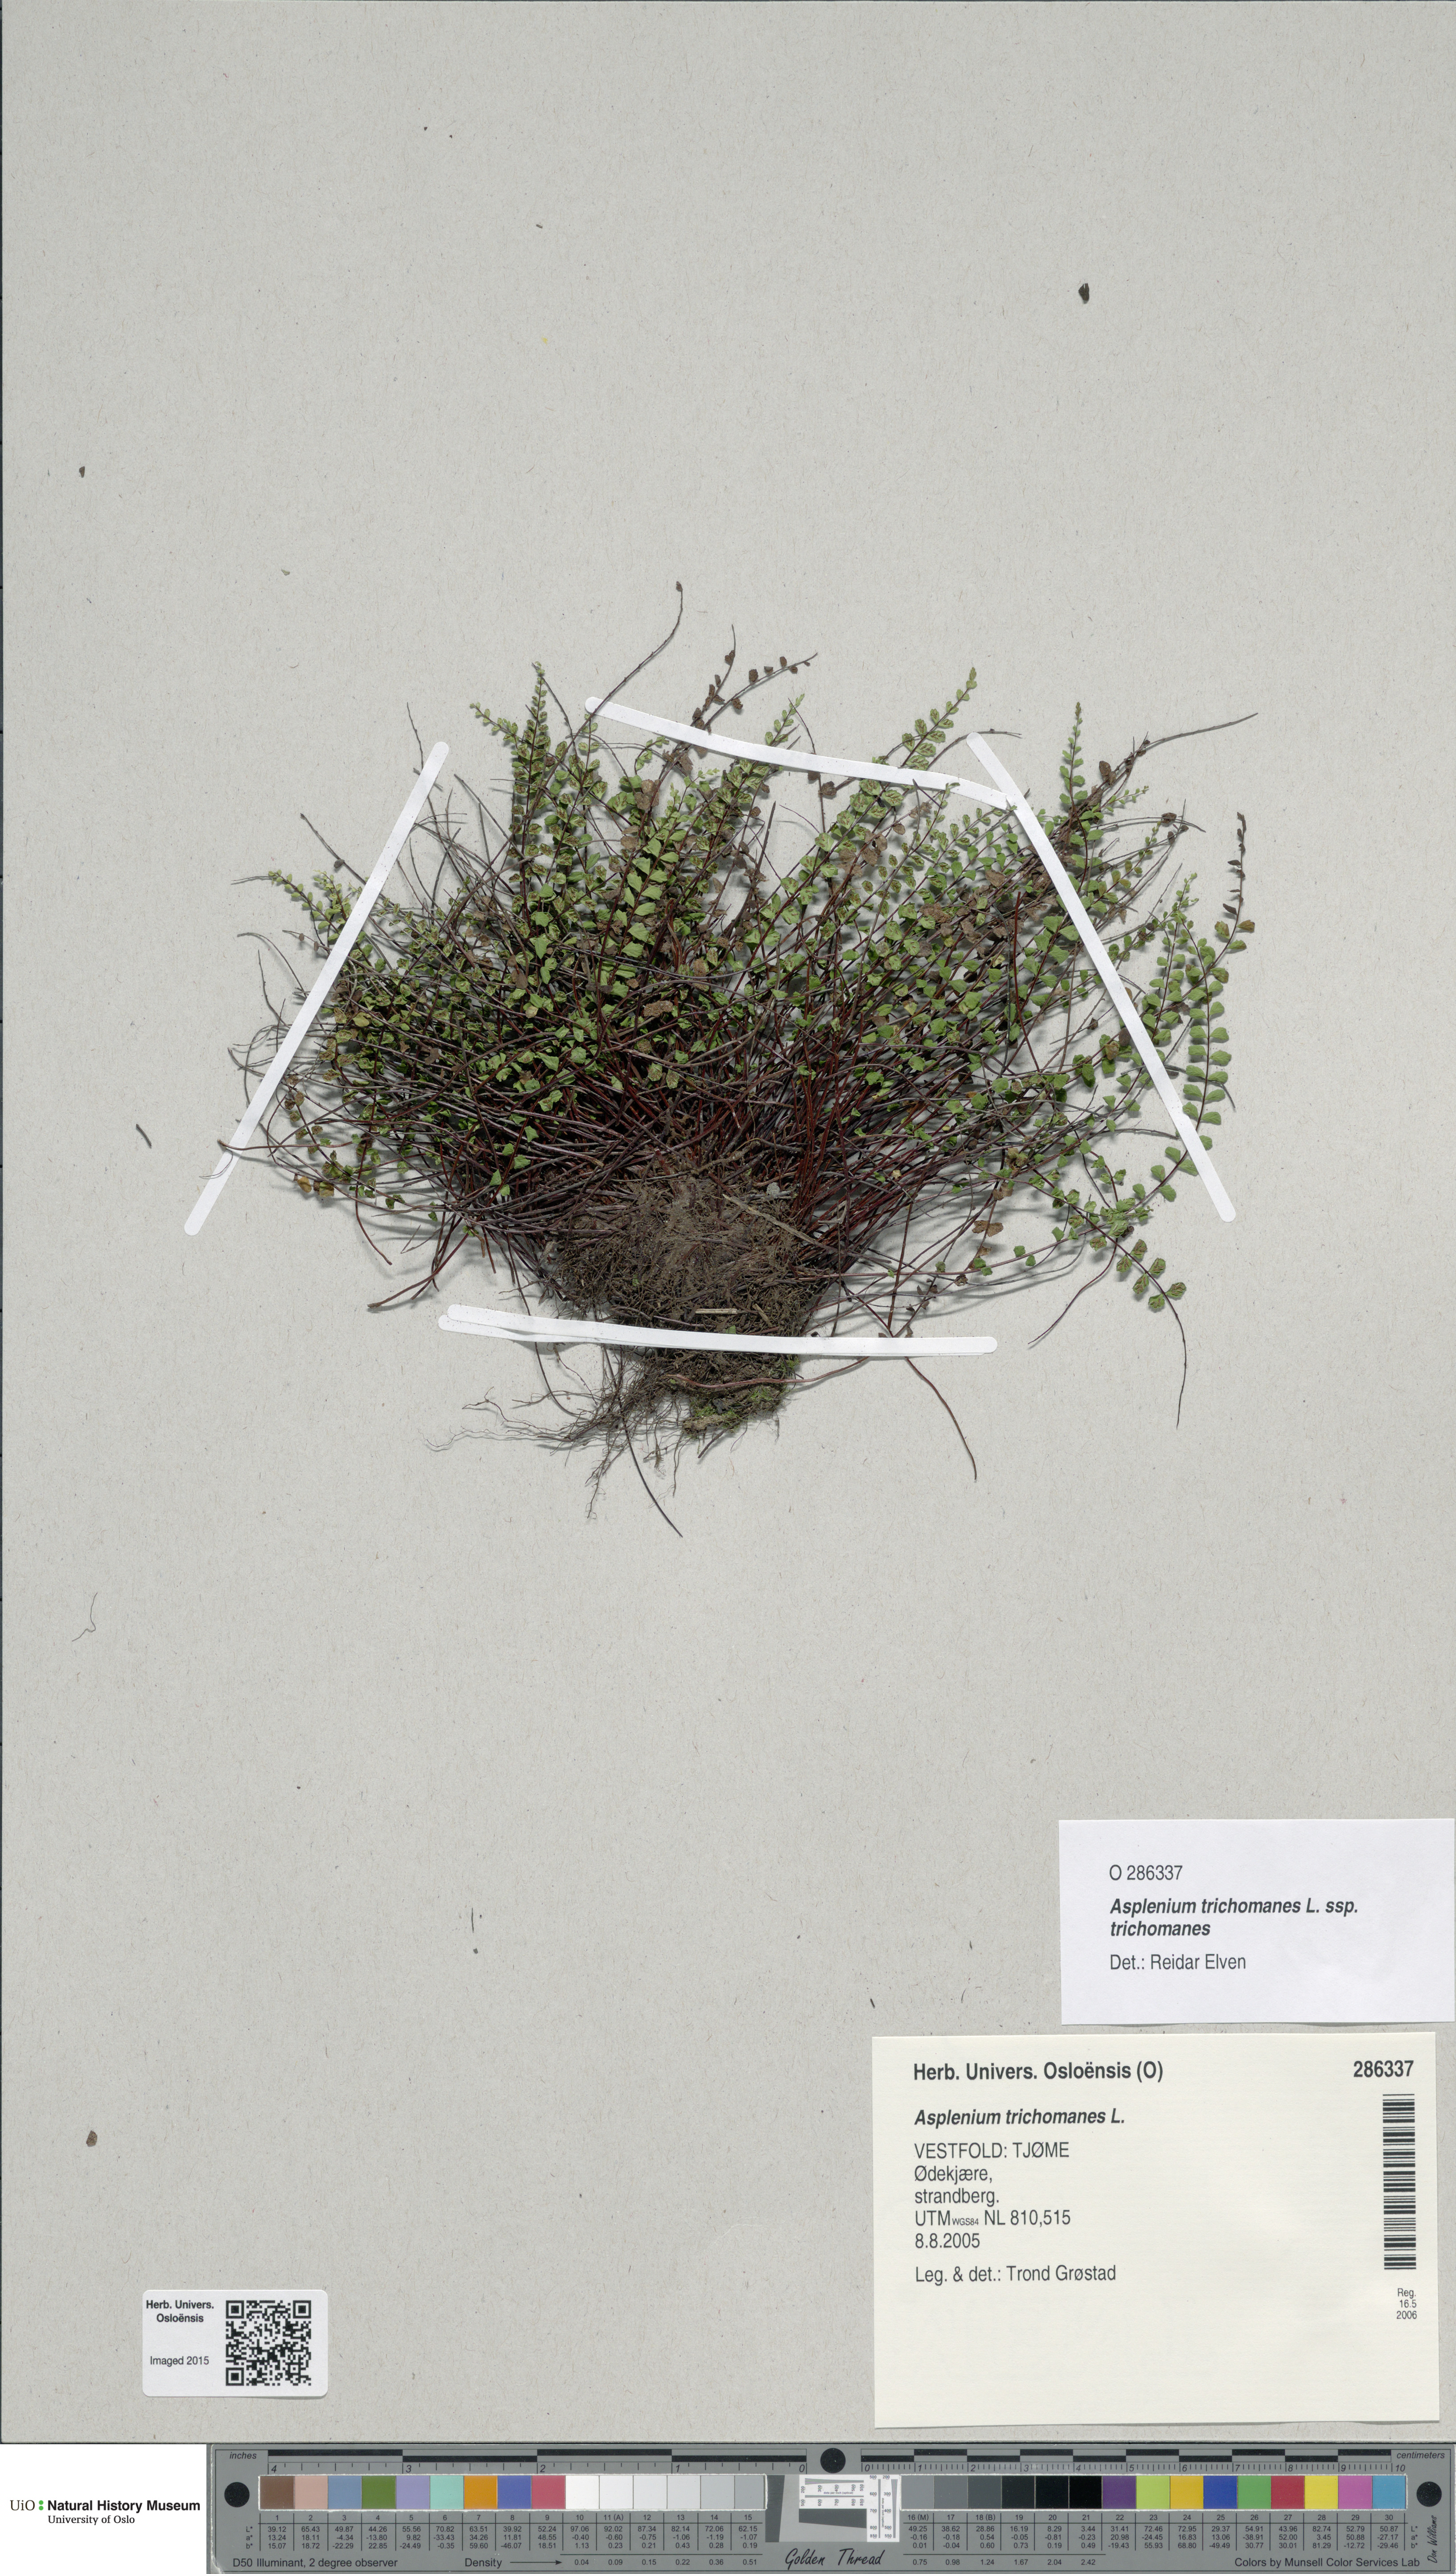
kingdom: Plantae
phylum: Tracheophyta
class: Polypodiopsida
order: Polypodiales
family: Aspleniaceae
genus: Asplenium
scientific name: Asplenium trichomanes
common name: Maidenhair spleenwort
